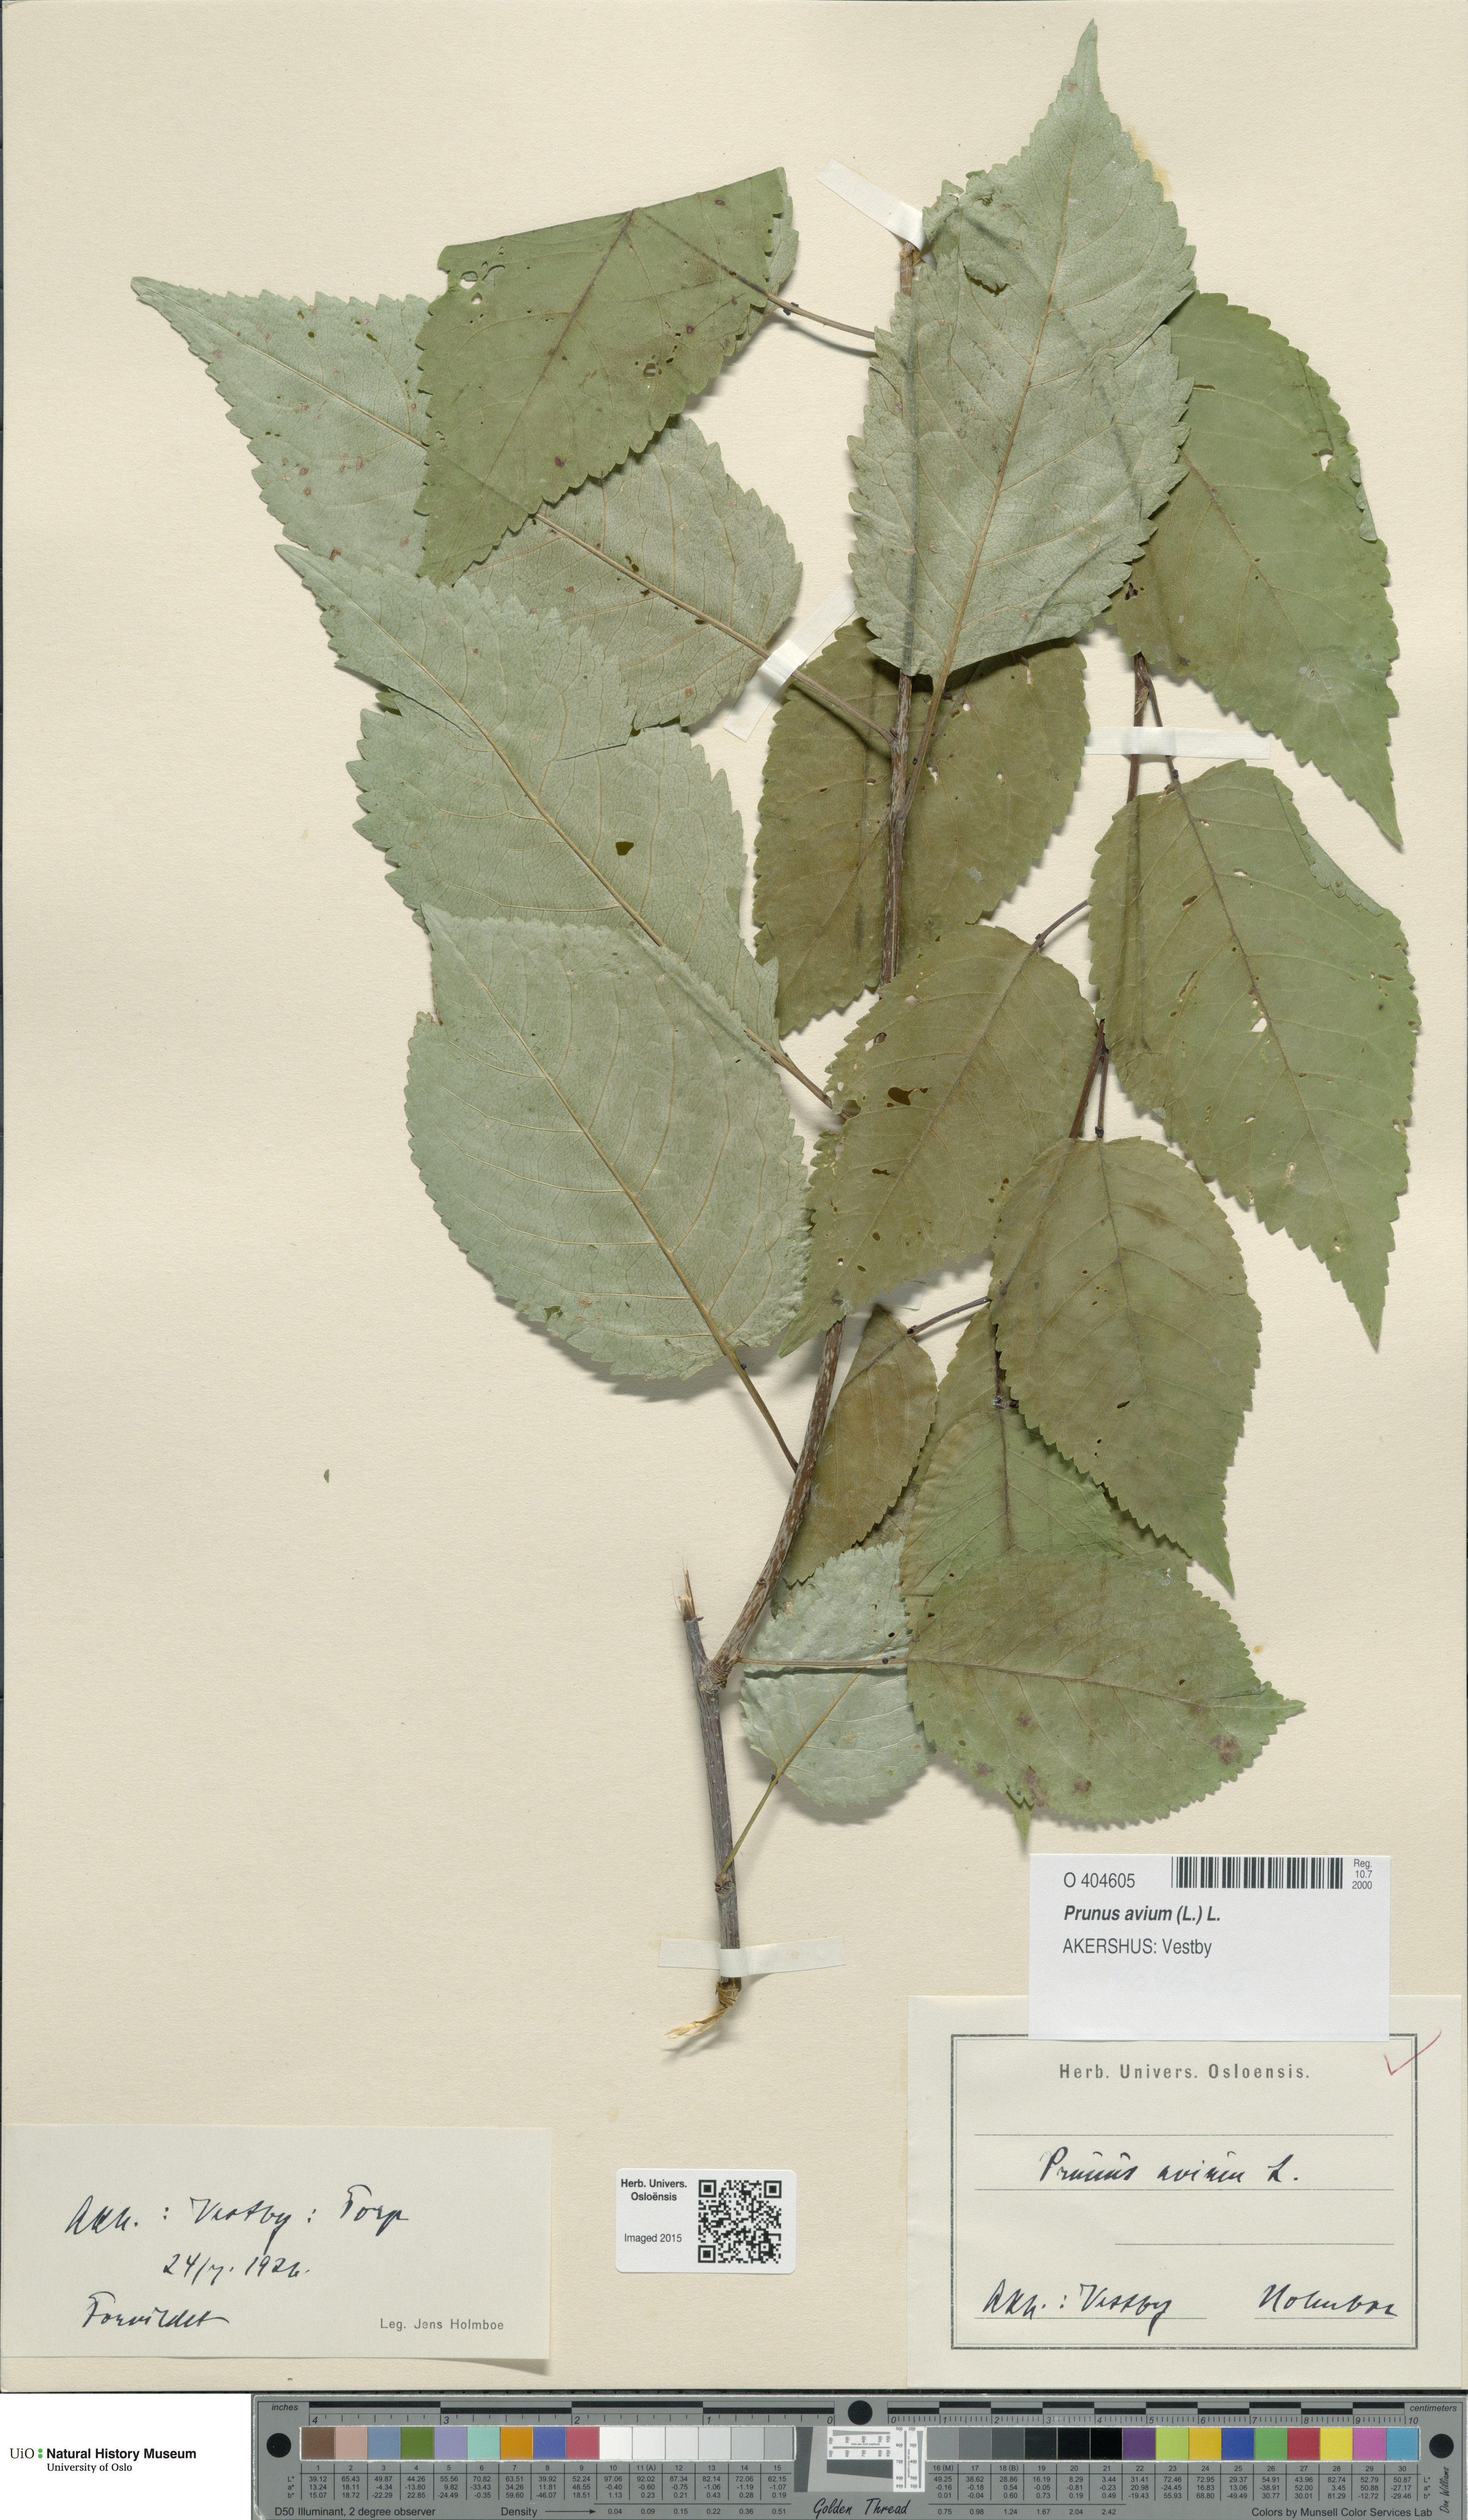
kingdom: Plantae
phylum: Tracheophyta
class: Magnoliopsida
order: Rosales
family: Rosaceae
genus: Prunus
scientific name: Prunus avium
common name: Sweet cherry
